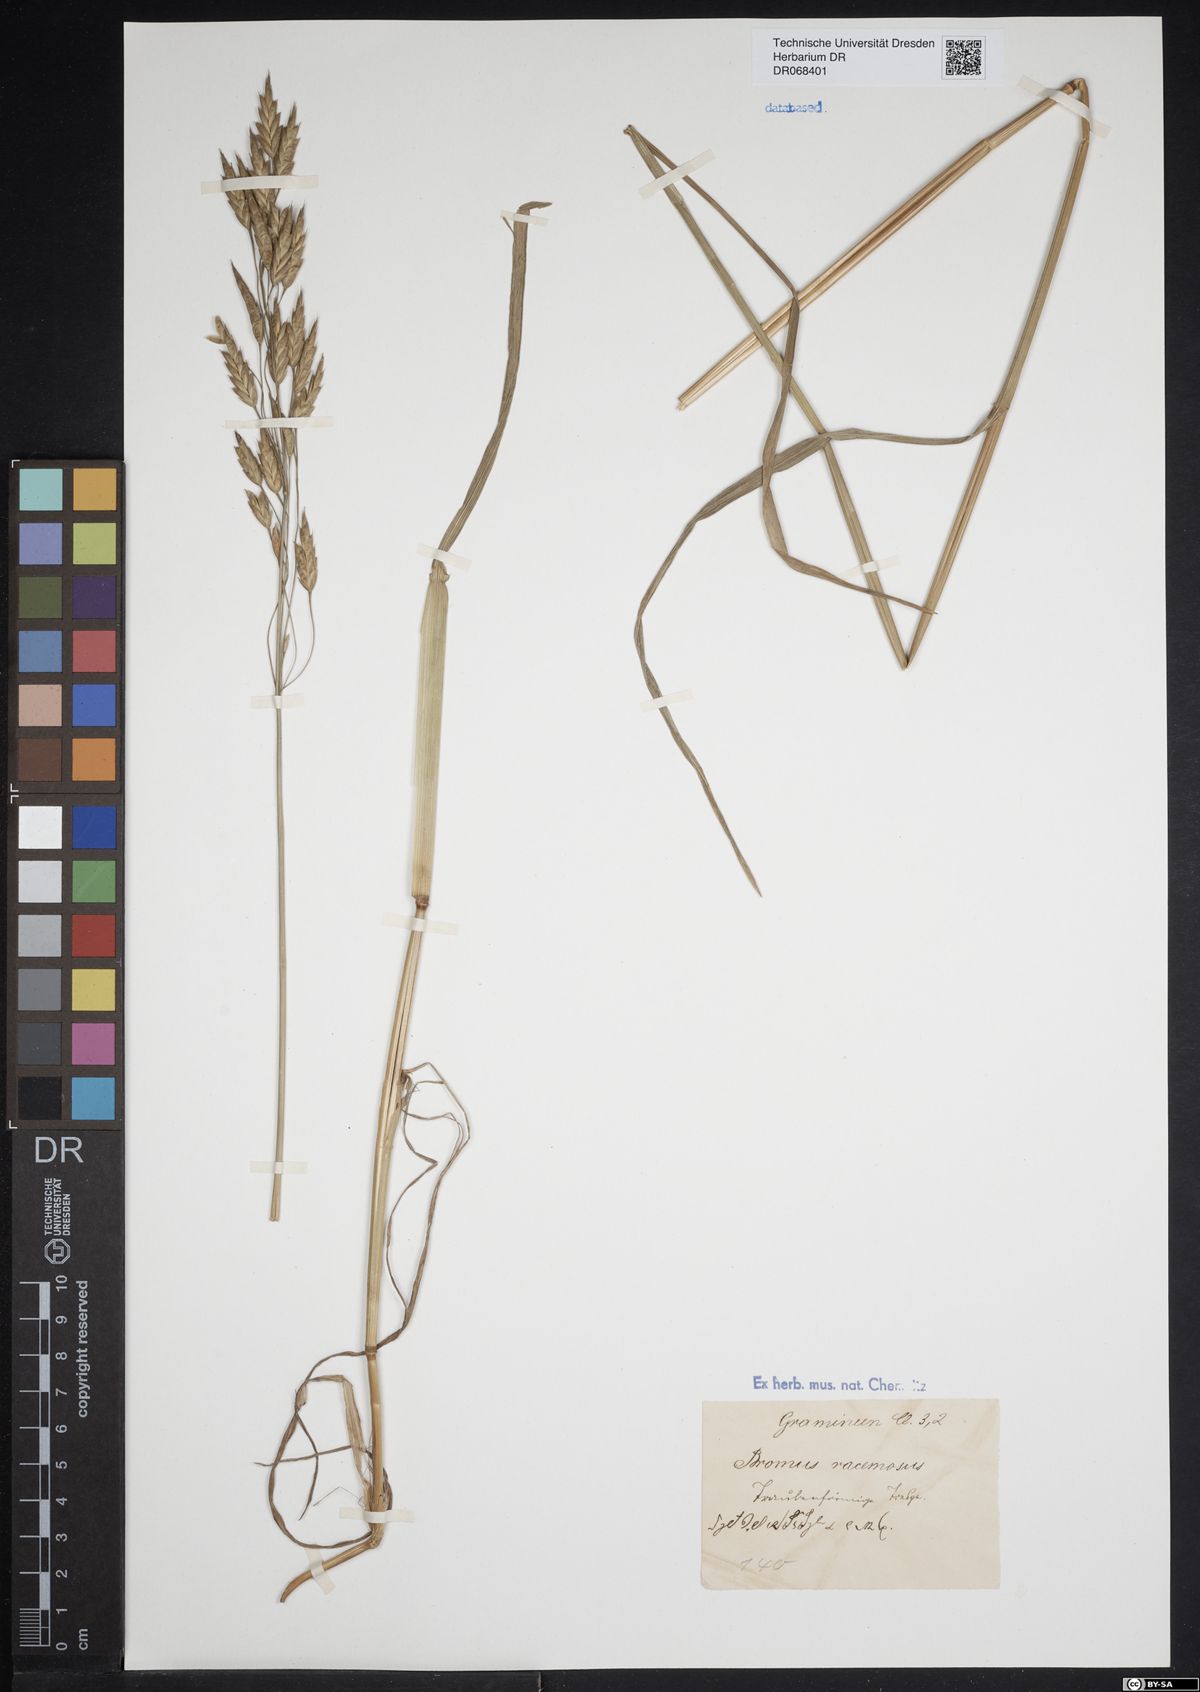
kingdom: Plantae
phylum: Tracheophyta
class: Liliopsida
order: Poales
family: Poaceae
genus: Bromus
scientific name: Bromus racemosus
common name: Bald brome
